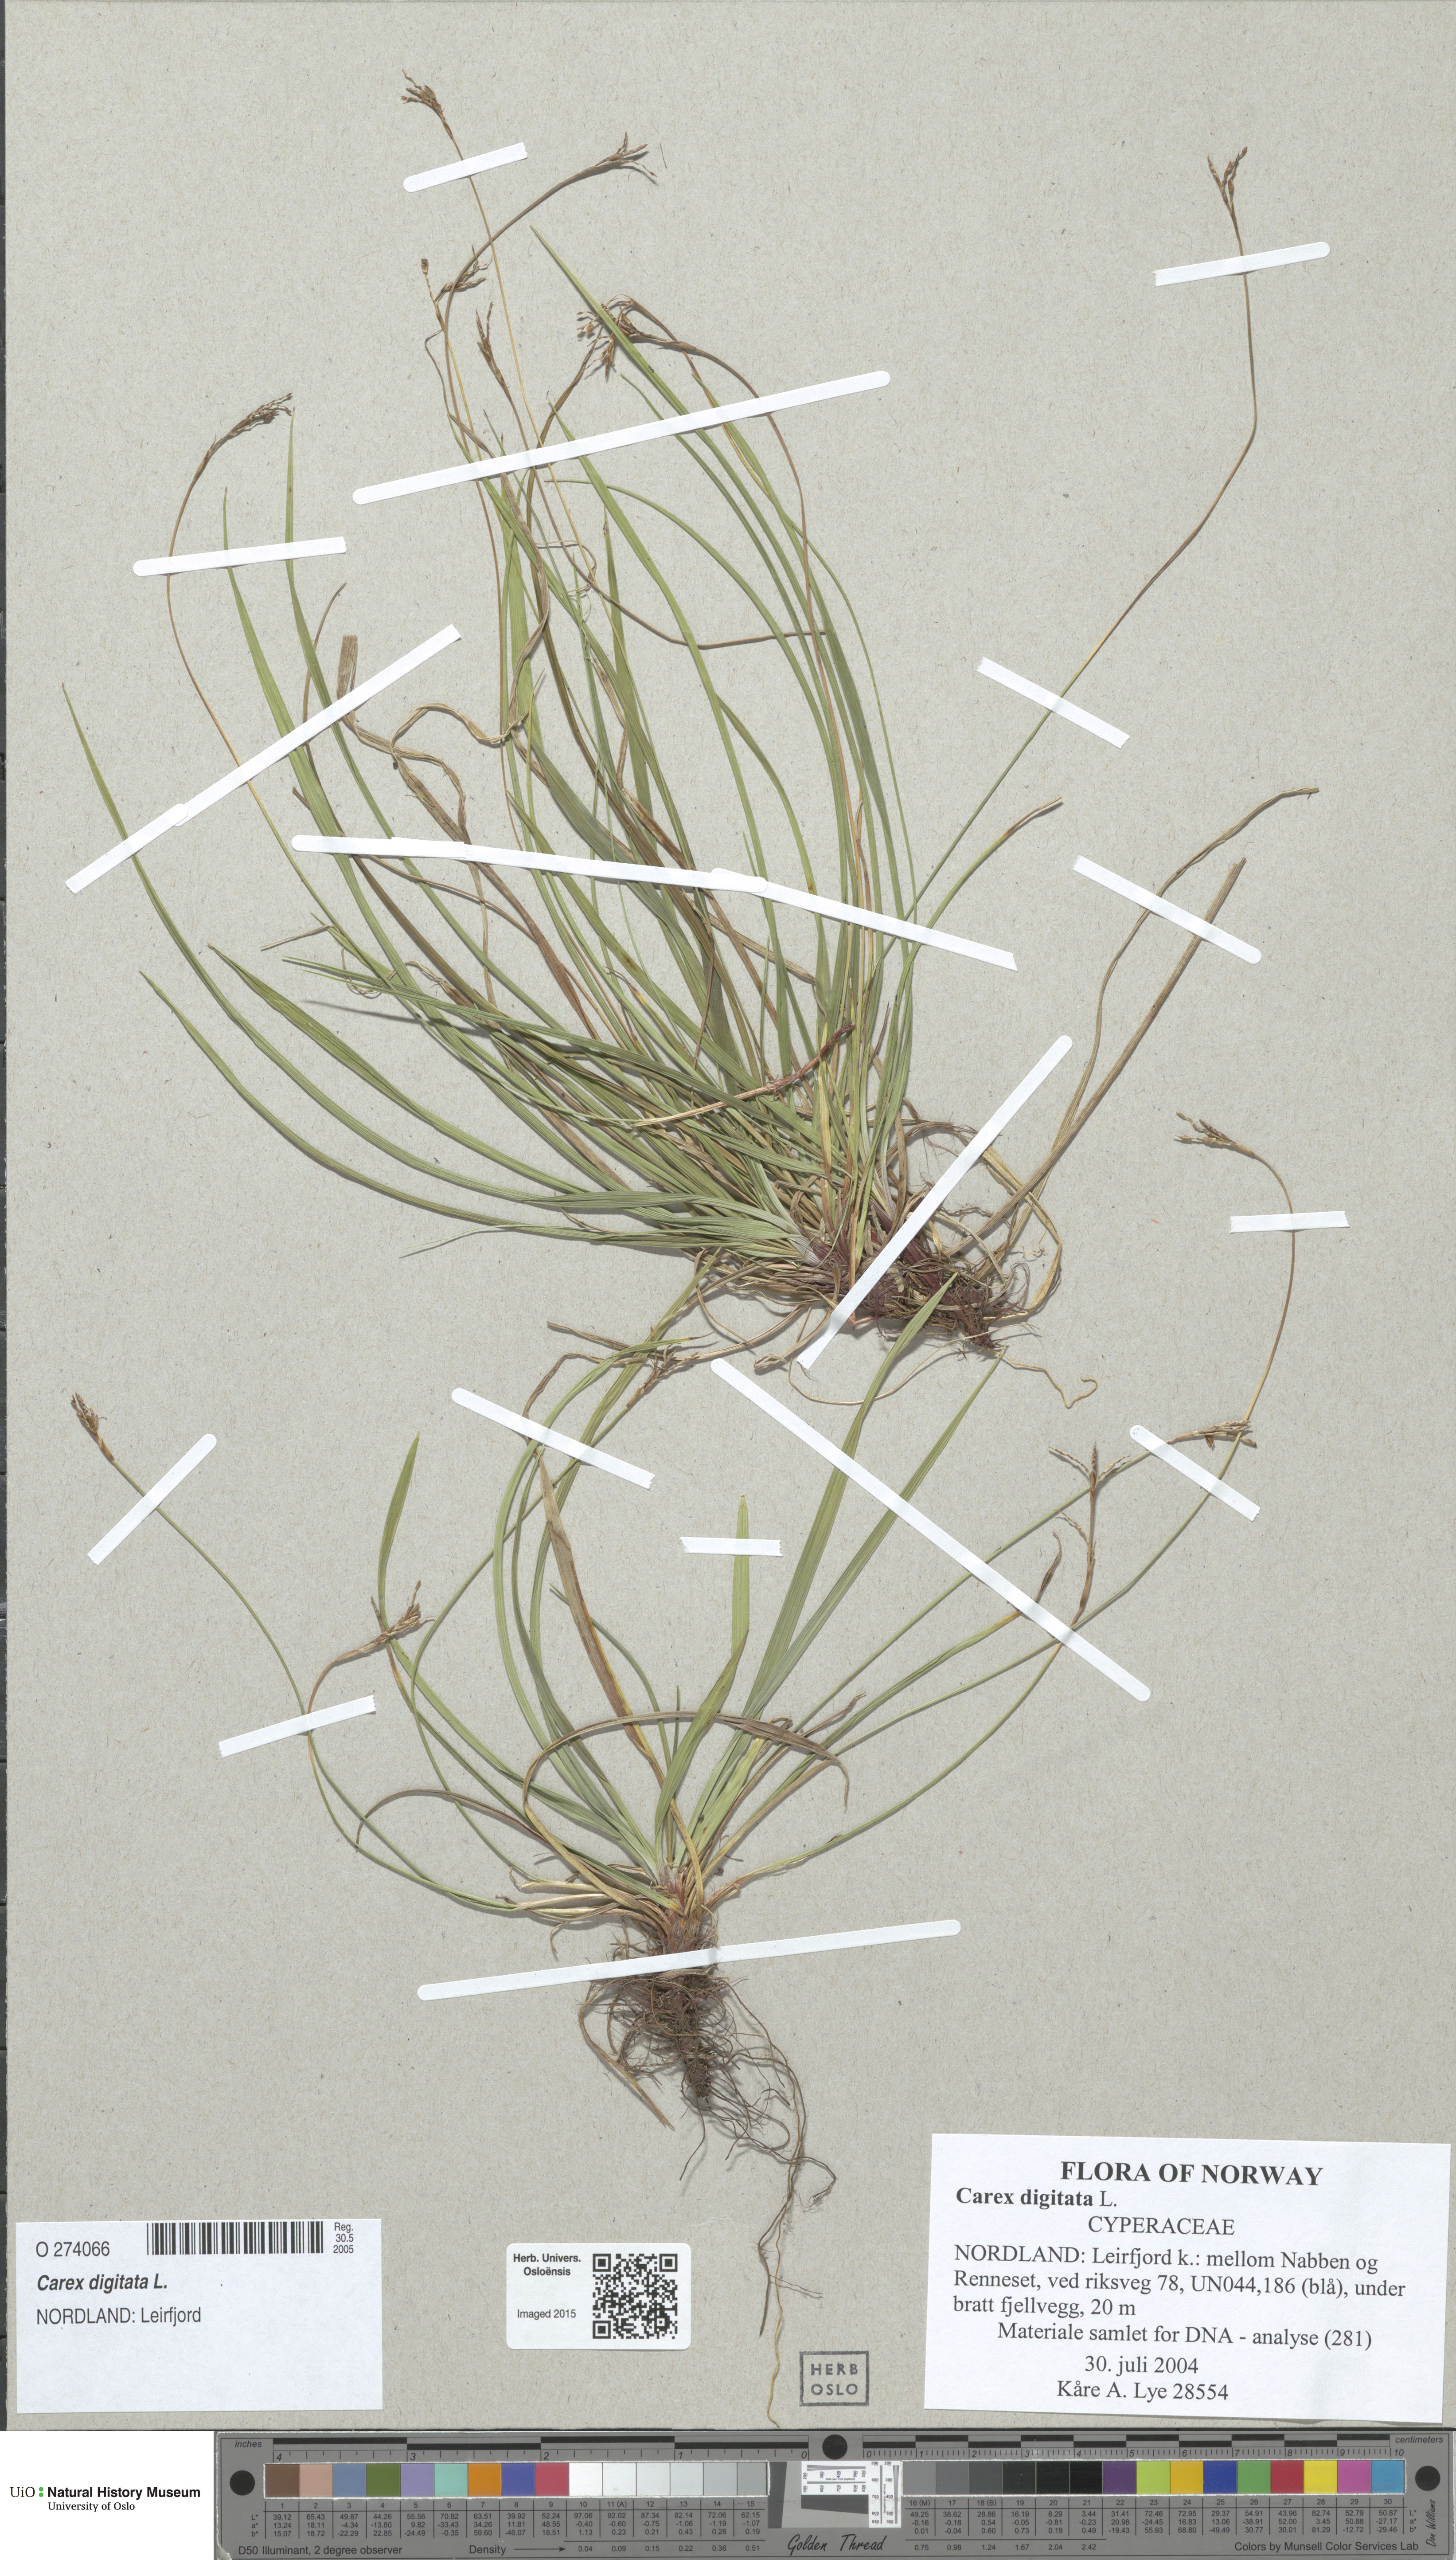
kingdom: Plantae
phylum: Tracheophyta
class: Liliopsida
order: Poales
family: Cyperaceae
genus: Carex
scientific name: Carex digitata
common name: Fingered sedge
